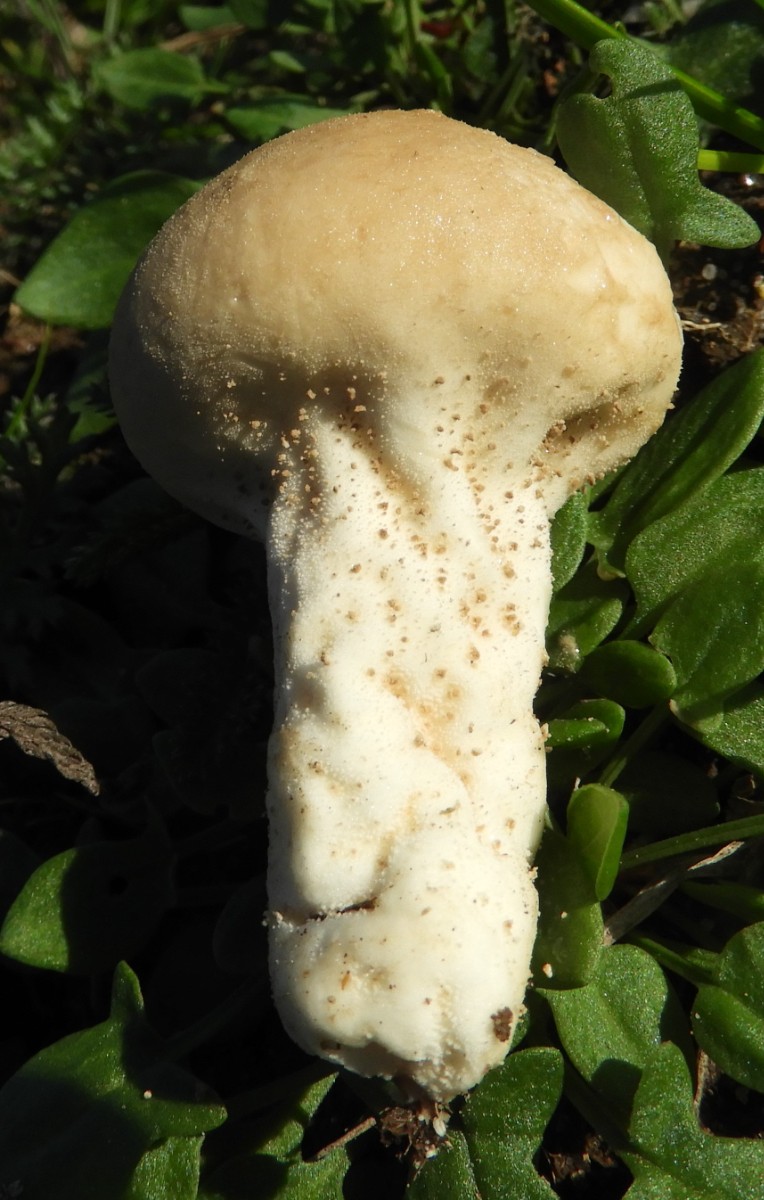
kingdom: Fungi
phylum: Basidiomycota
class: Agaricomycetes
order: Agaricales
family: Agaricaceae
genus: Lycoperdon
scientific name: Lycoperdon
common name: støvbold
